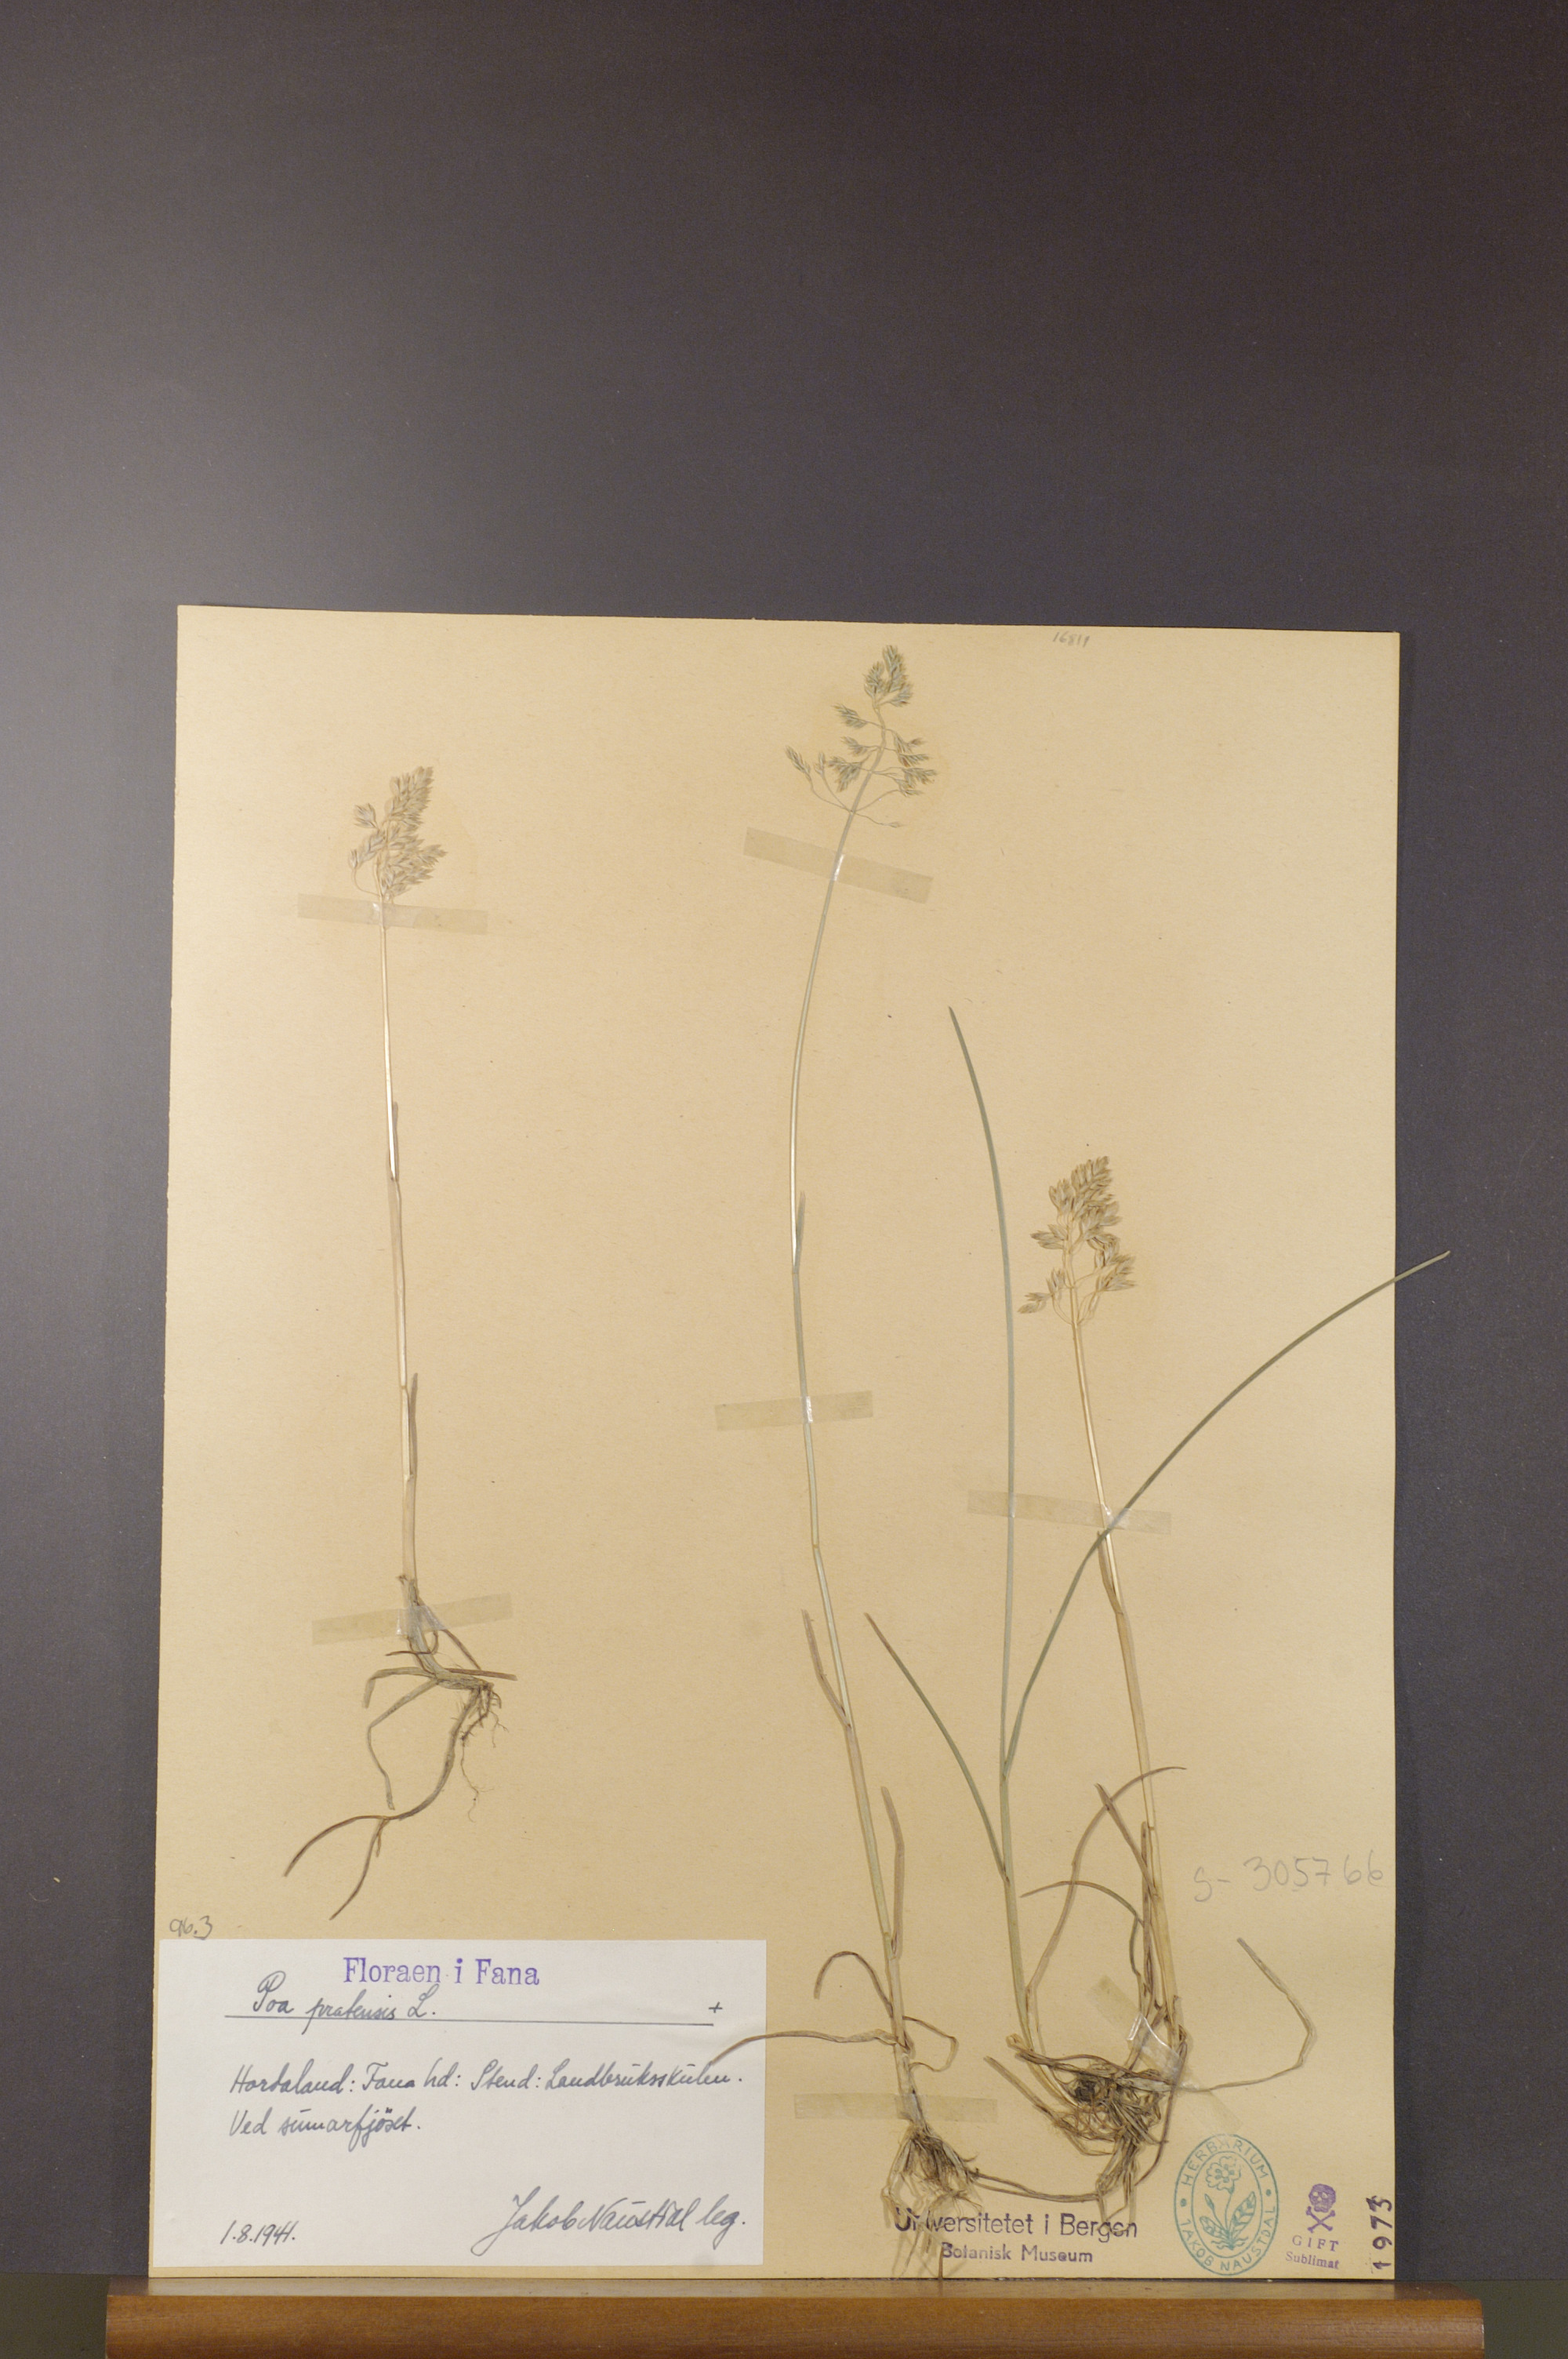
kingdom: Plantae
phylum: Tracheophyta
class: Liliopsida
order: Poales
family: Poaceae
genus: Poa
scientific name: Poa pratensis
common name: Kentucky bluegrass
